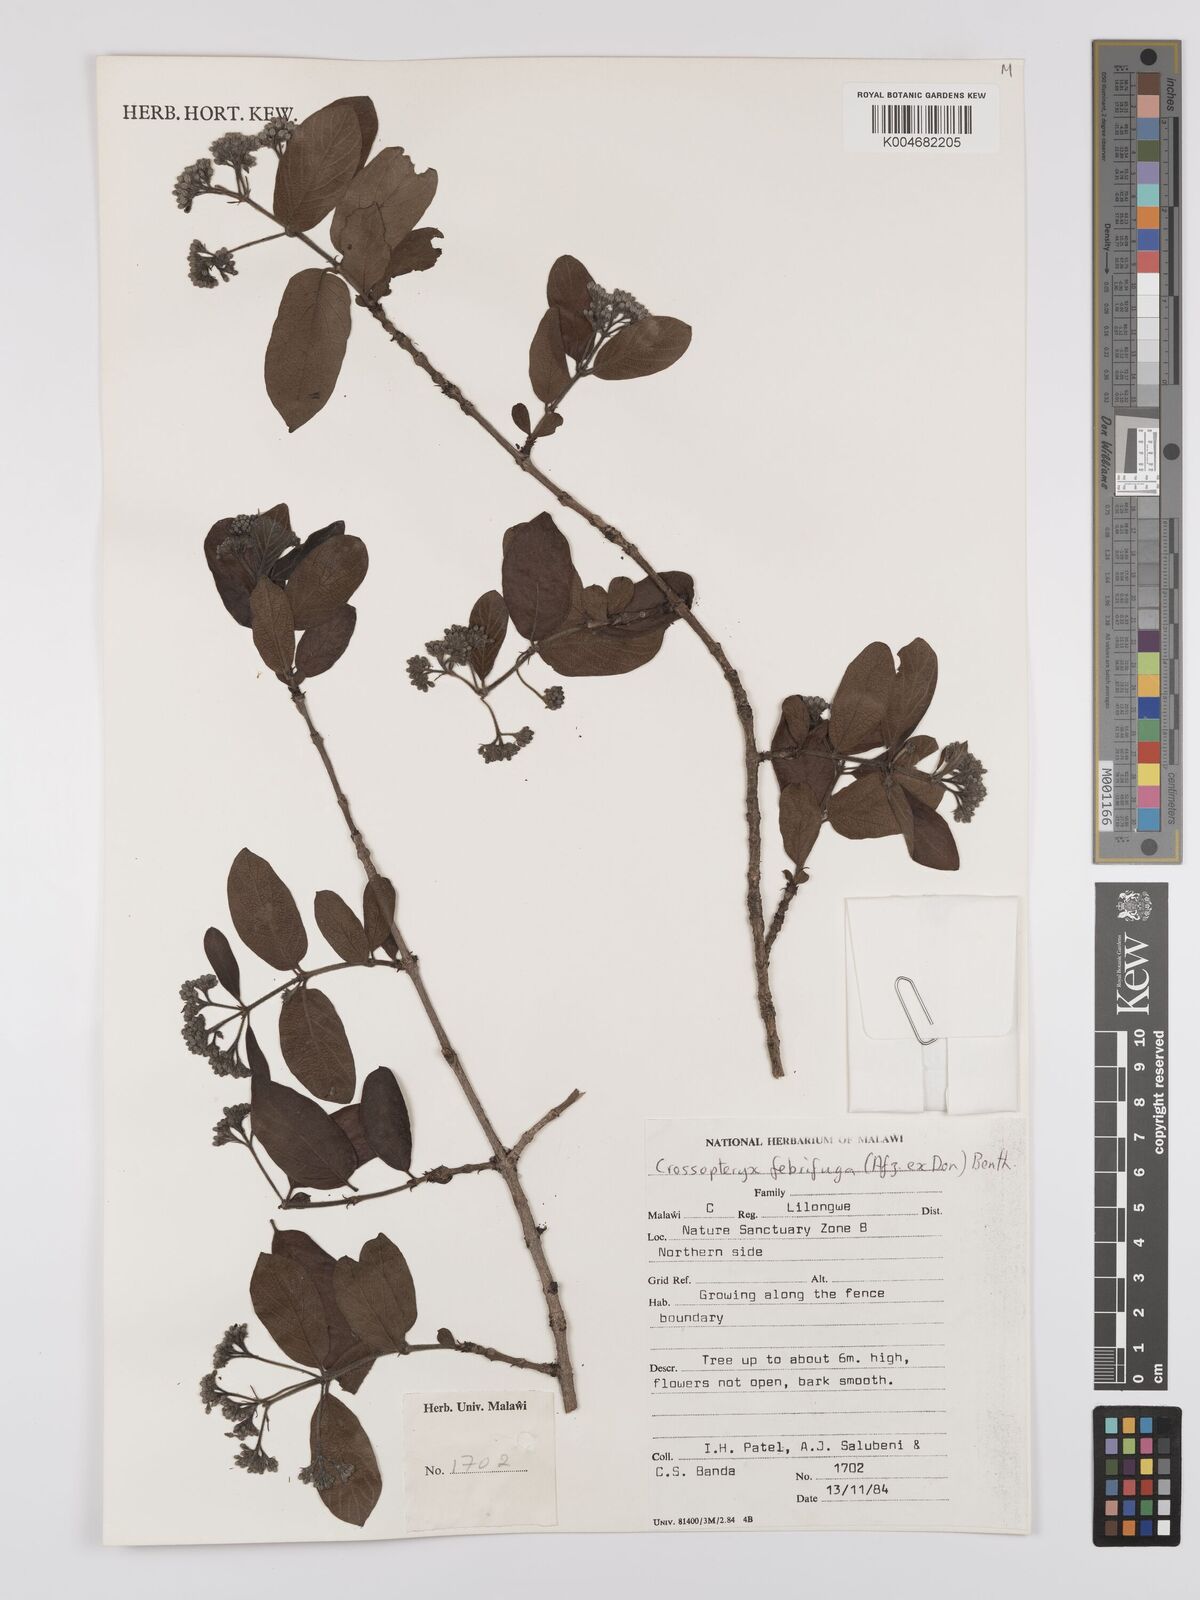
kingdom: Plantae
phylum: Tracheophyta
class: Magnoliopsida
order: Gentianales
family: Rubiaceae
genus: Crossopteryx
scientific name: Crossopteryx febrifuga
